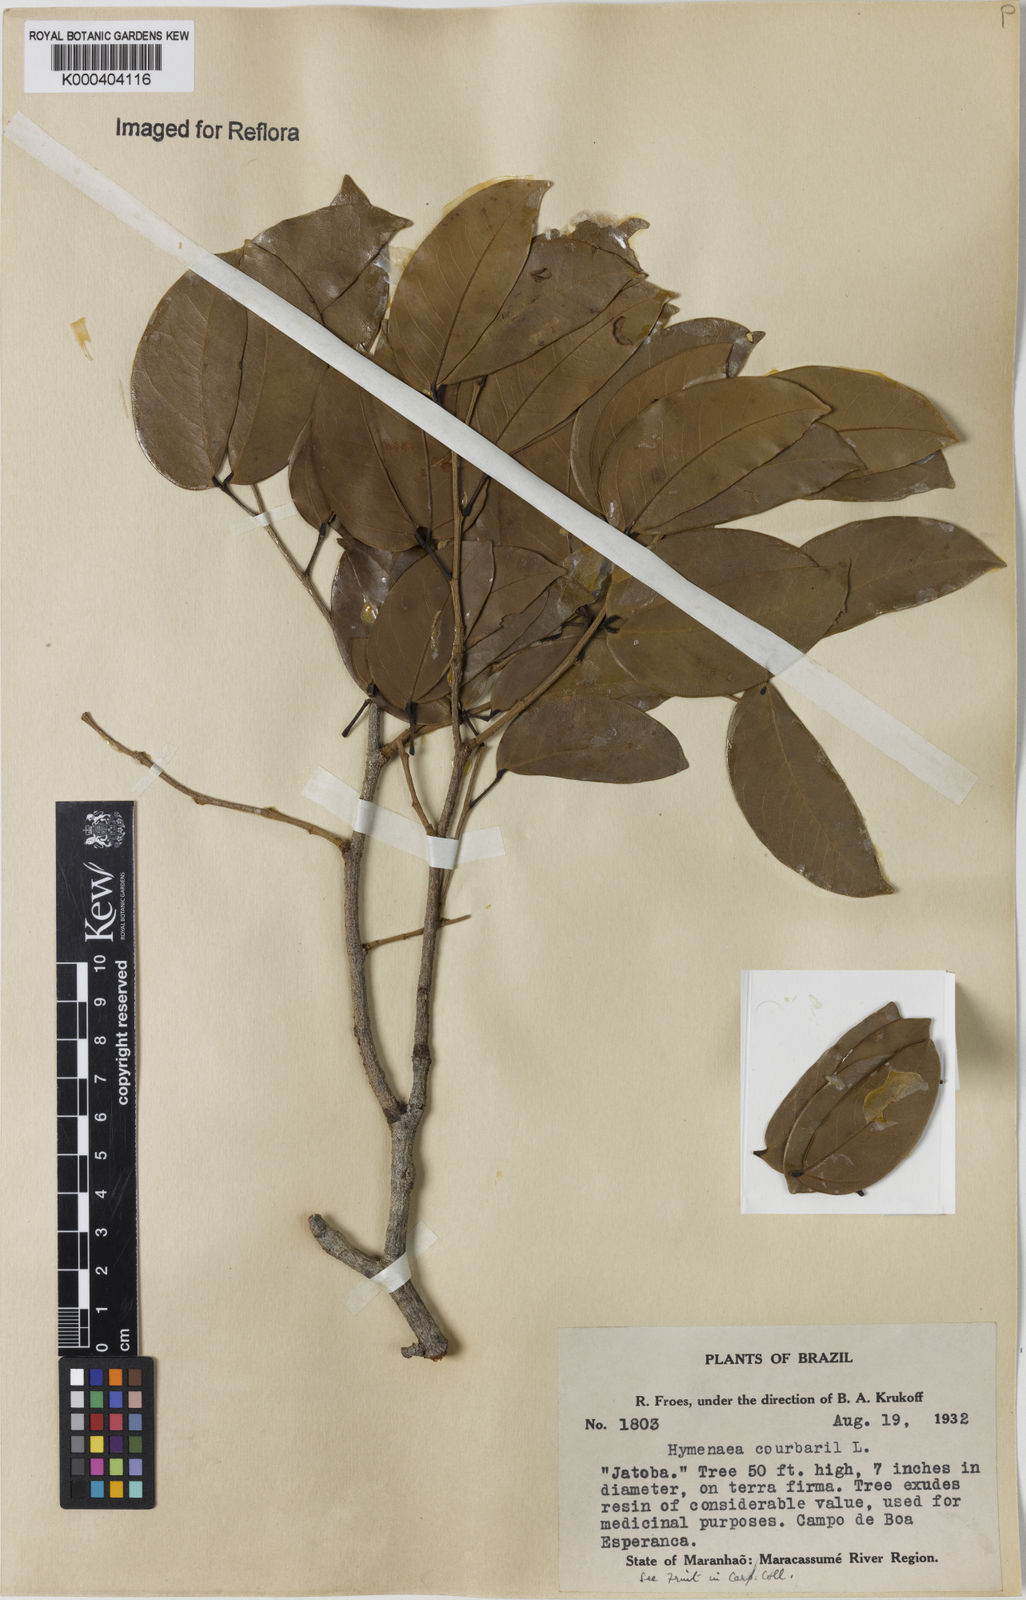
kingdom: Plantae
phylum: Tracheophyta
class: Magnoliopsida
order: Fabales
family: Fabaceae
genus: Hymenaea
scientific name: Hymenaea courbaril
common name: Brazilian copal
